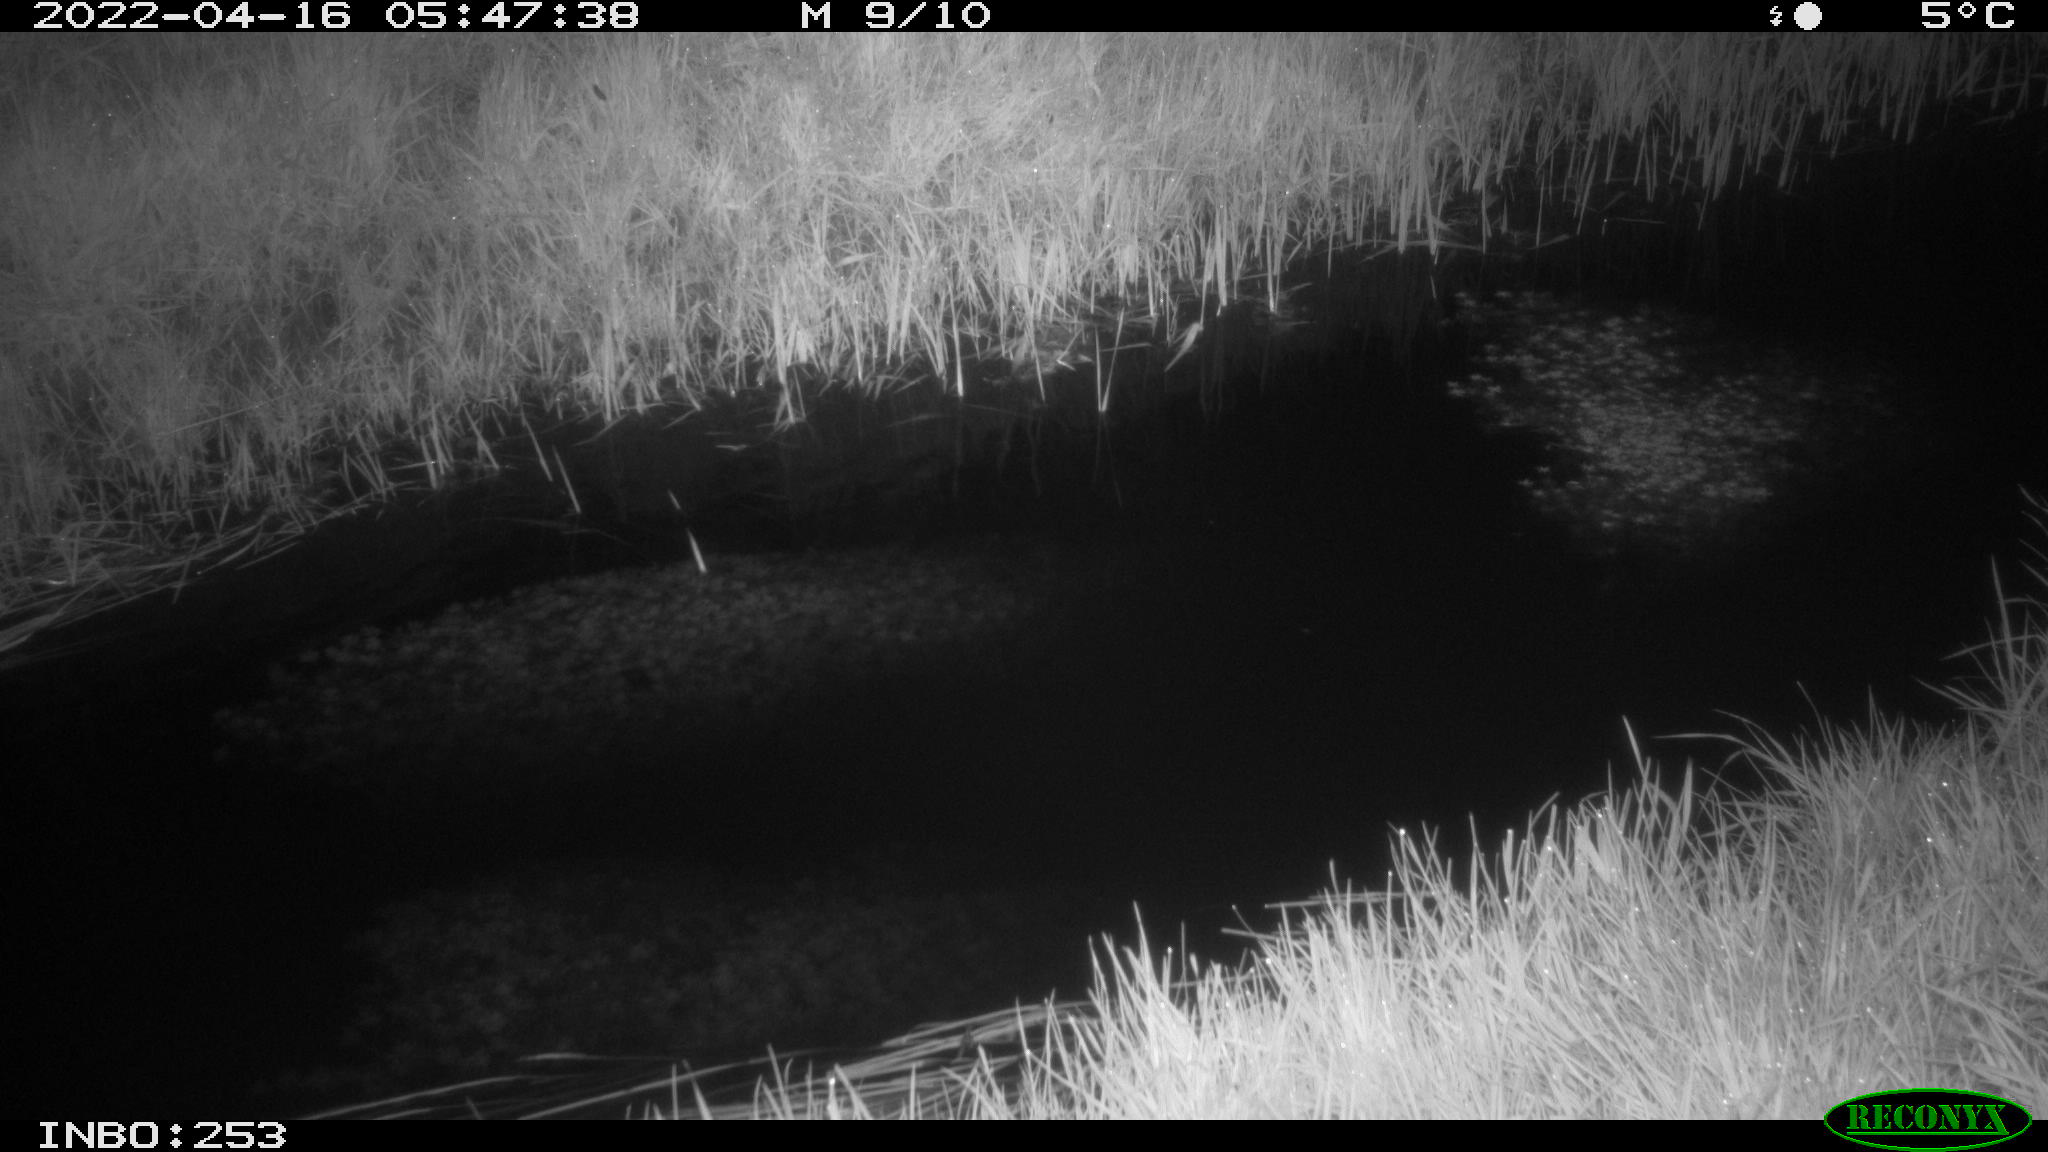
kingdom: Animalia
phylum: Chordata
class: Aves
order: Anseriformes
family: Anatidae
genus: Anas
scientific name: Anas platyrhynchos
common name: Mallard
